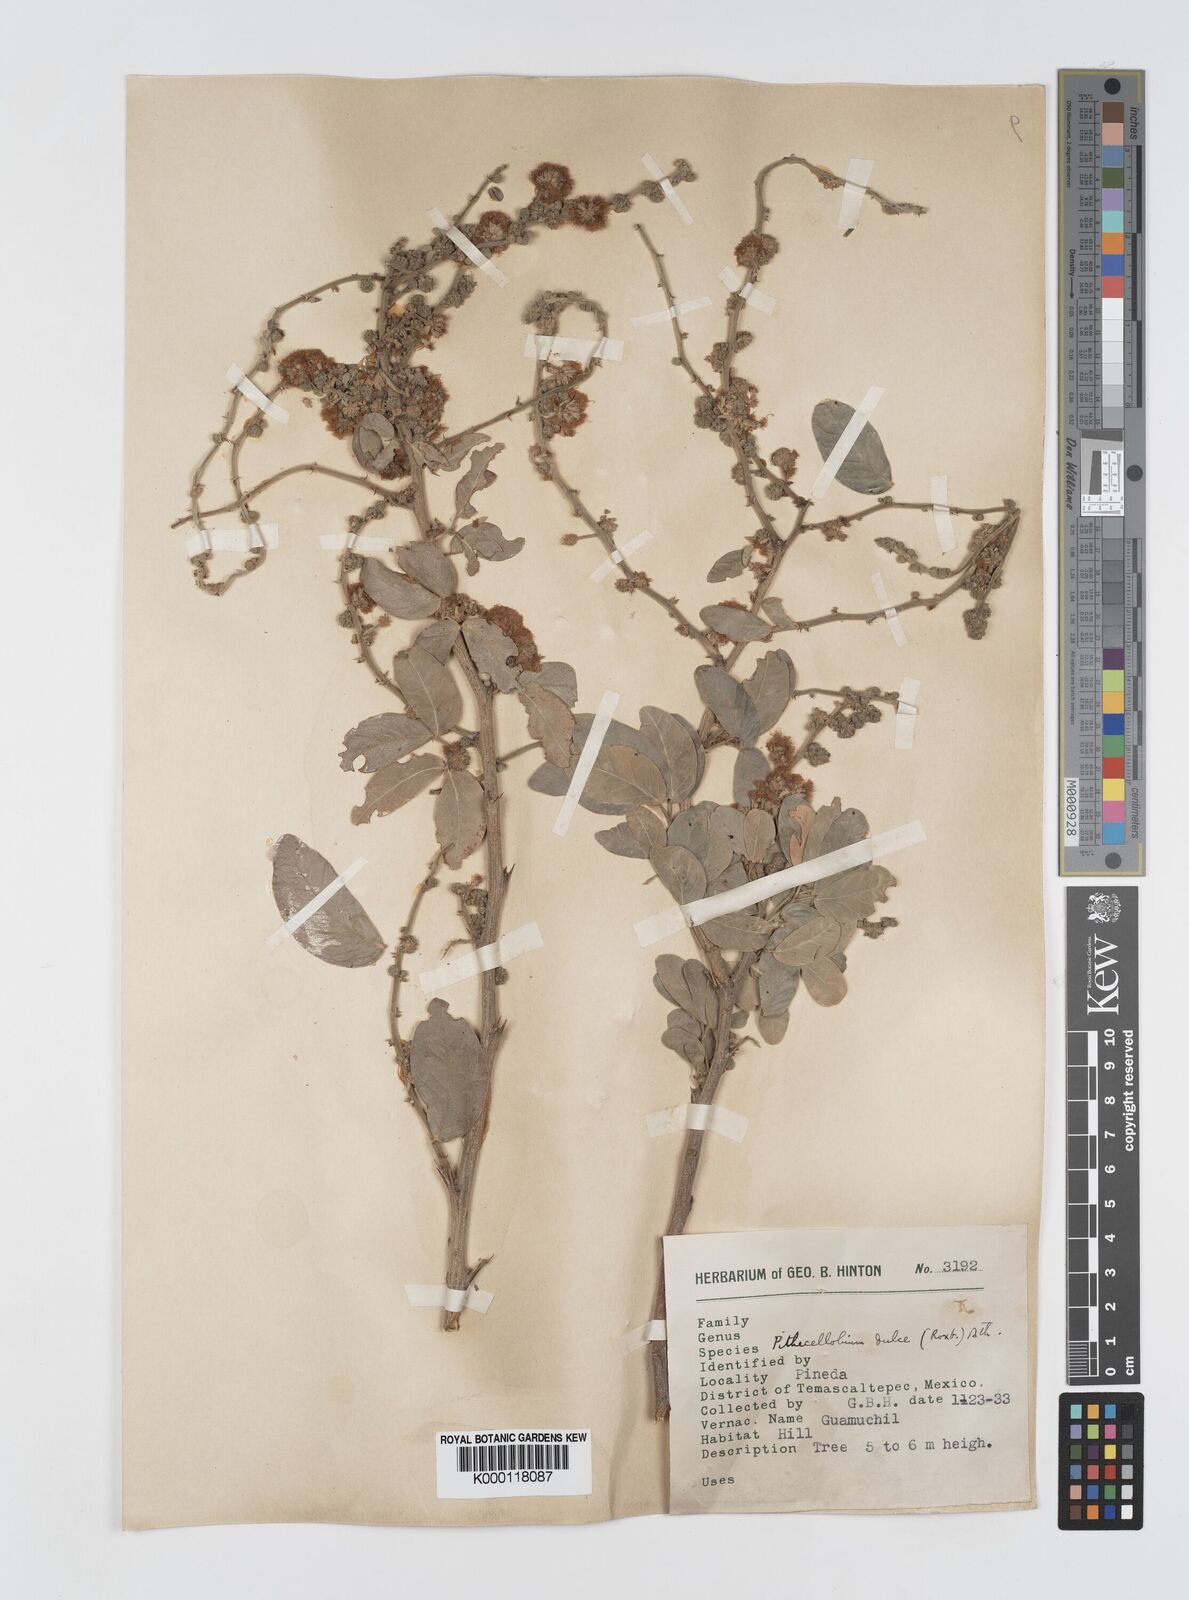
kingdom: Plantae
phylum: Tracheophyta
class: Magnoliopsida
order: Fabales
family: Fabaceae
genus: Pithecellobium
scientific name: Pithecellobium dulce
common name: Monkeypod
